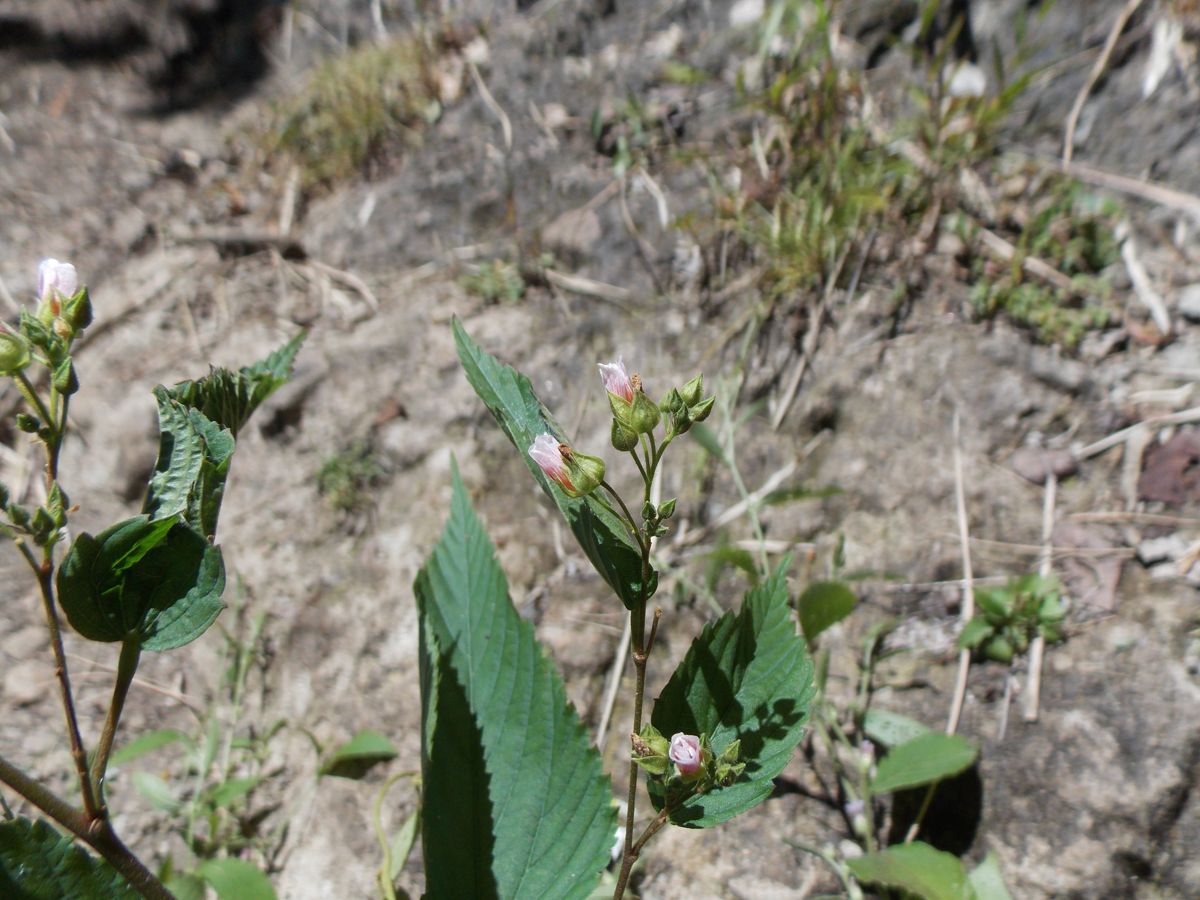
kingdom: Plantae
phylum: Tracheophyta
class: Magnoliopsida
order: Malvales
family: Malvaceae
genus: Melochia
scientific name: Melochia bernoulliana
